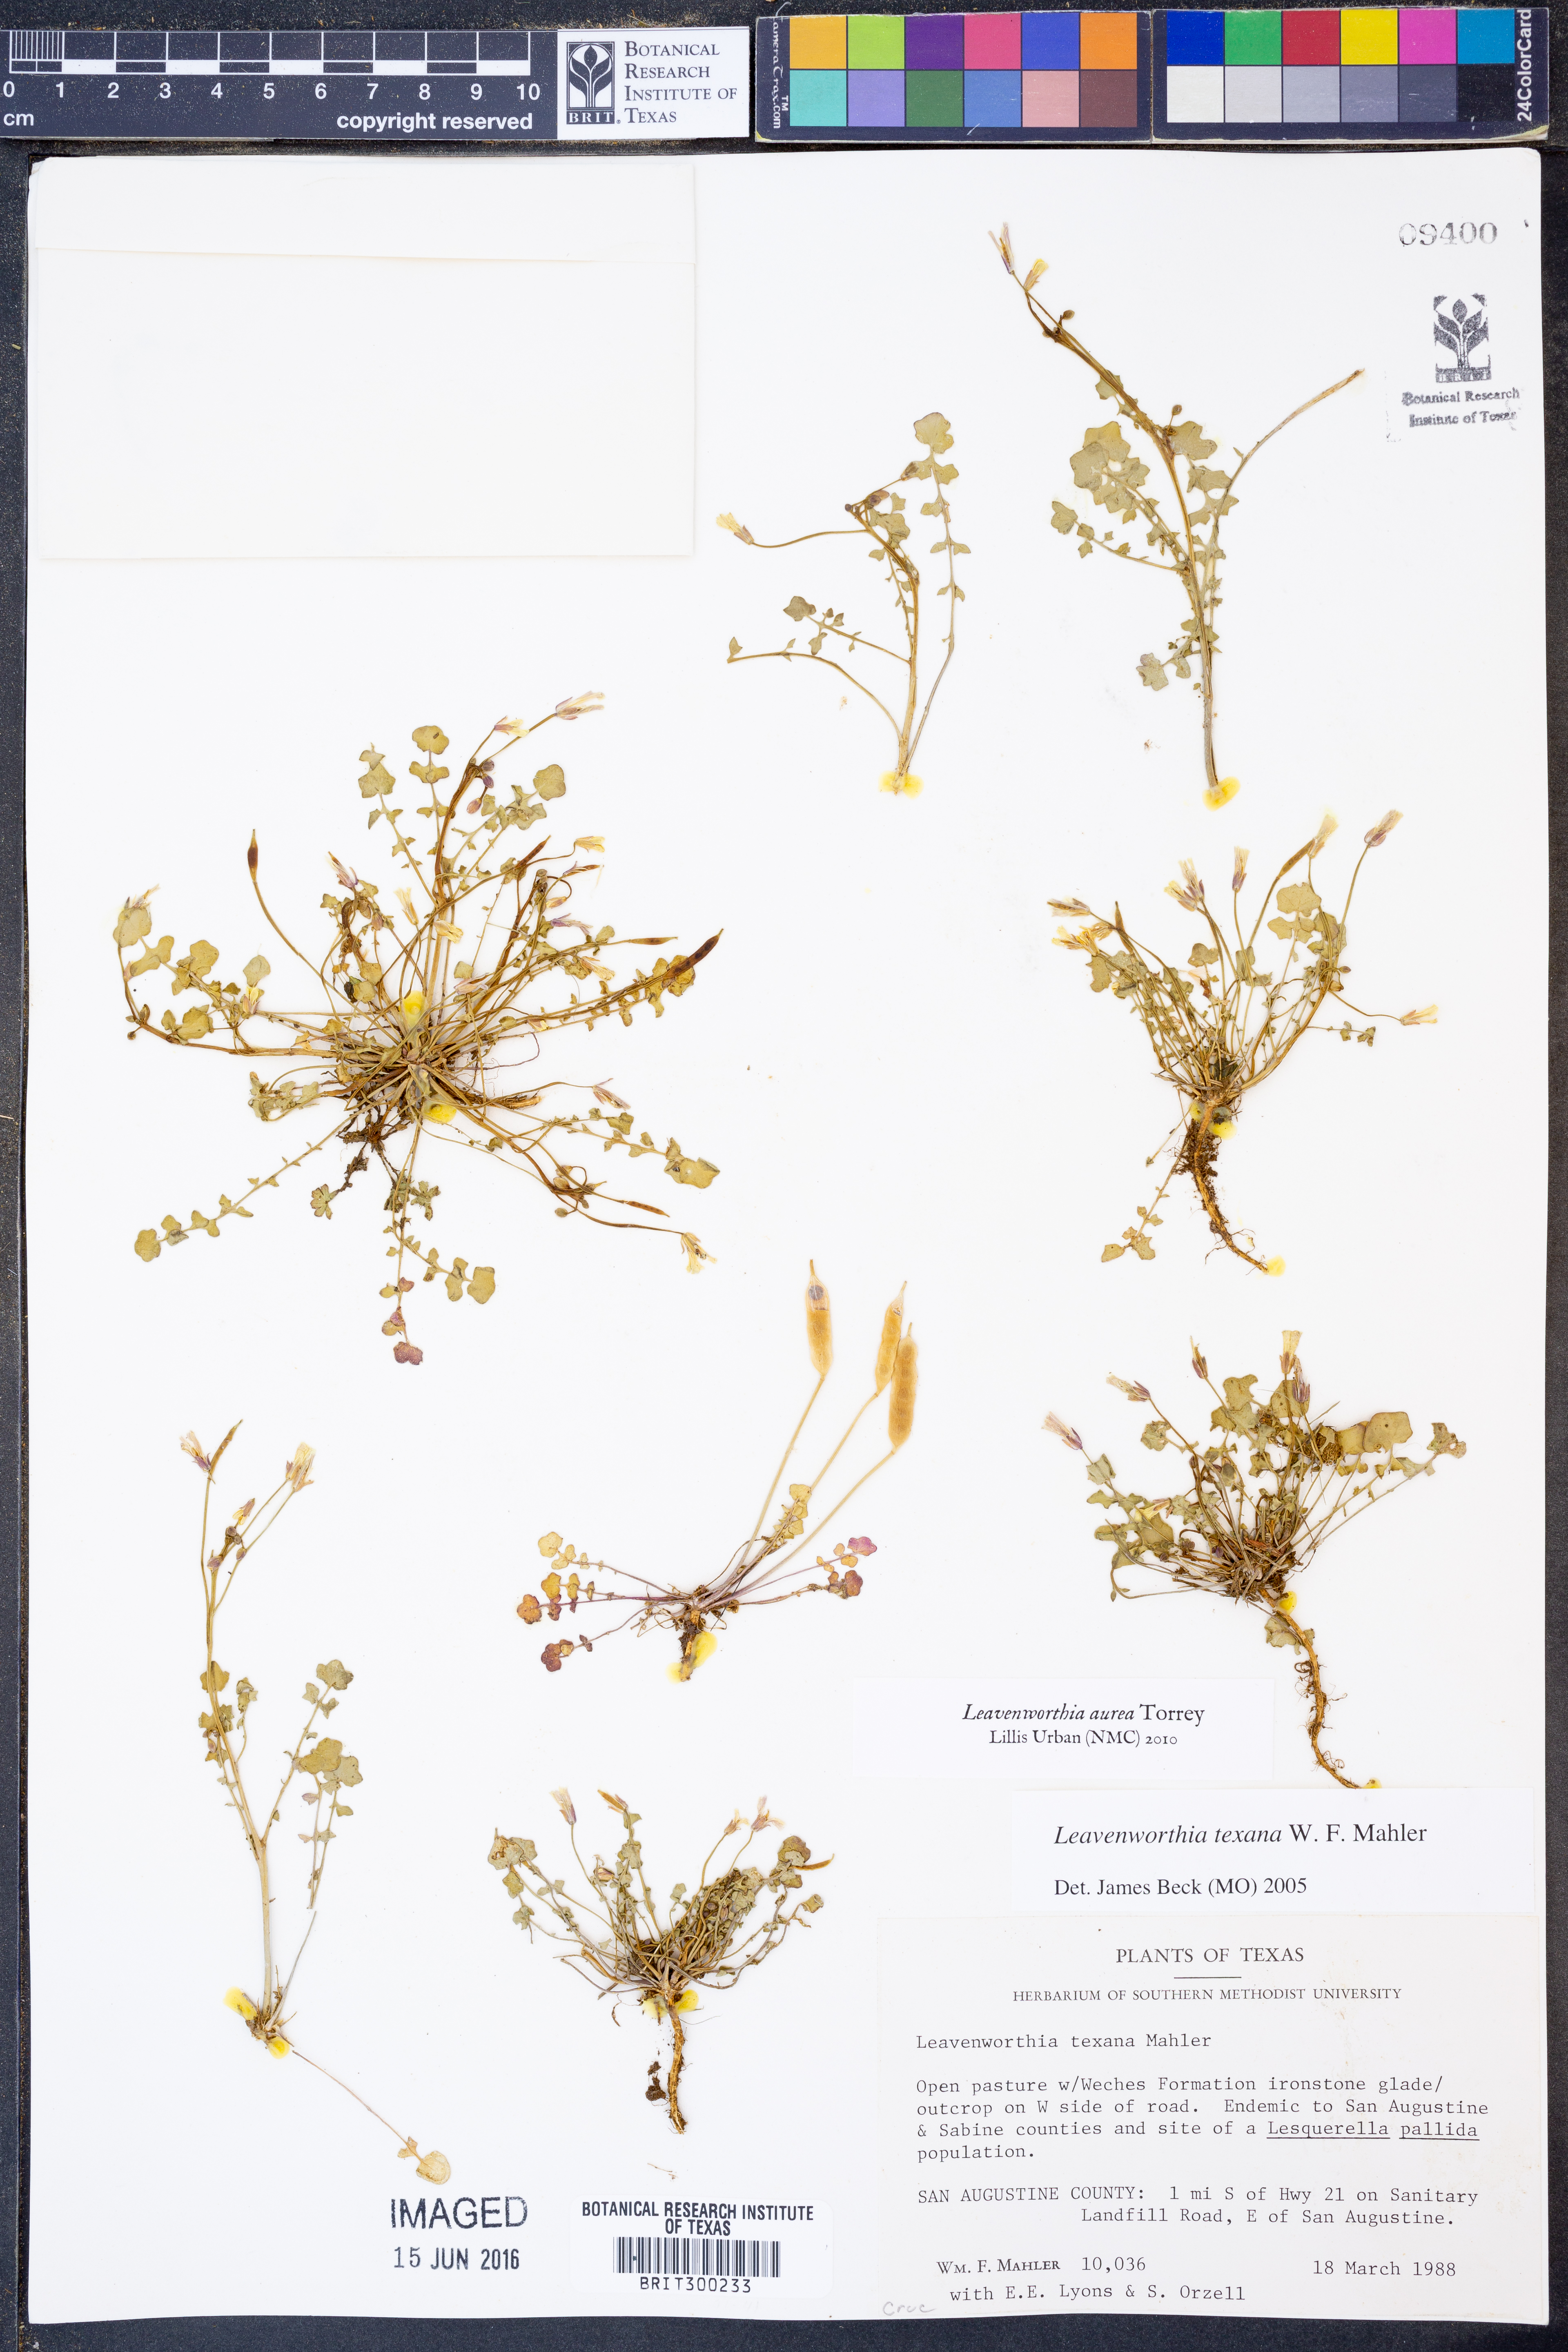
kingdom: Plantae
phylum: Tracheophyta
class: Magnoliopsida
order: Brassicales
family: Brassicaceae
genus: Leavenworthia
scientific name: Leavenworthia aurea
